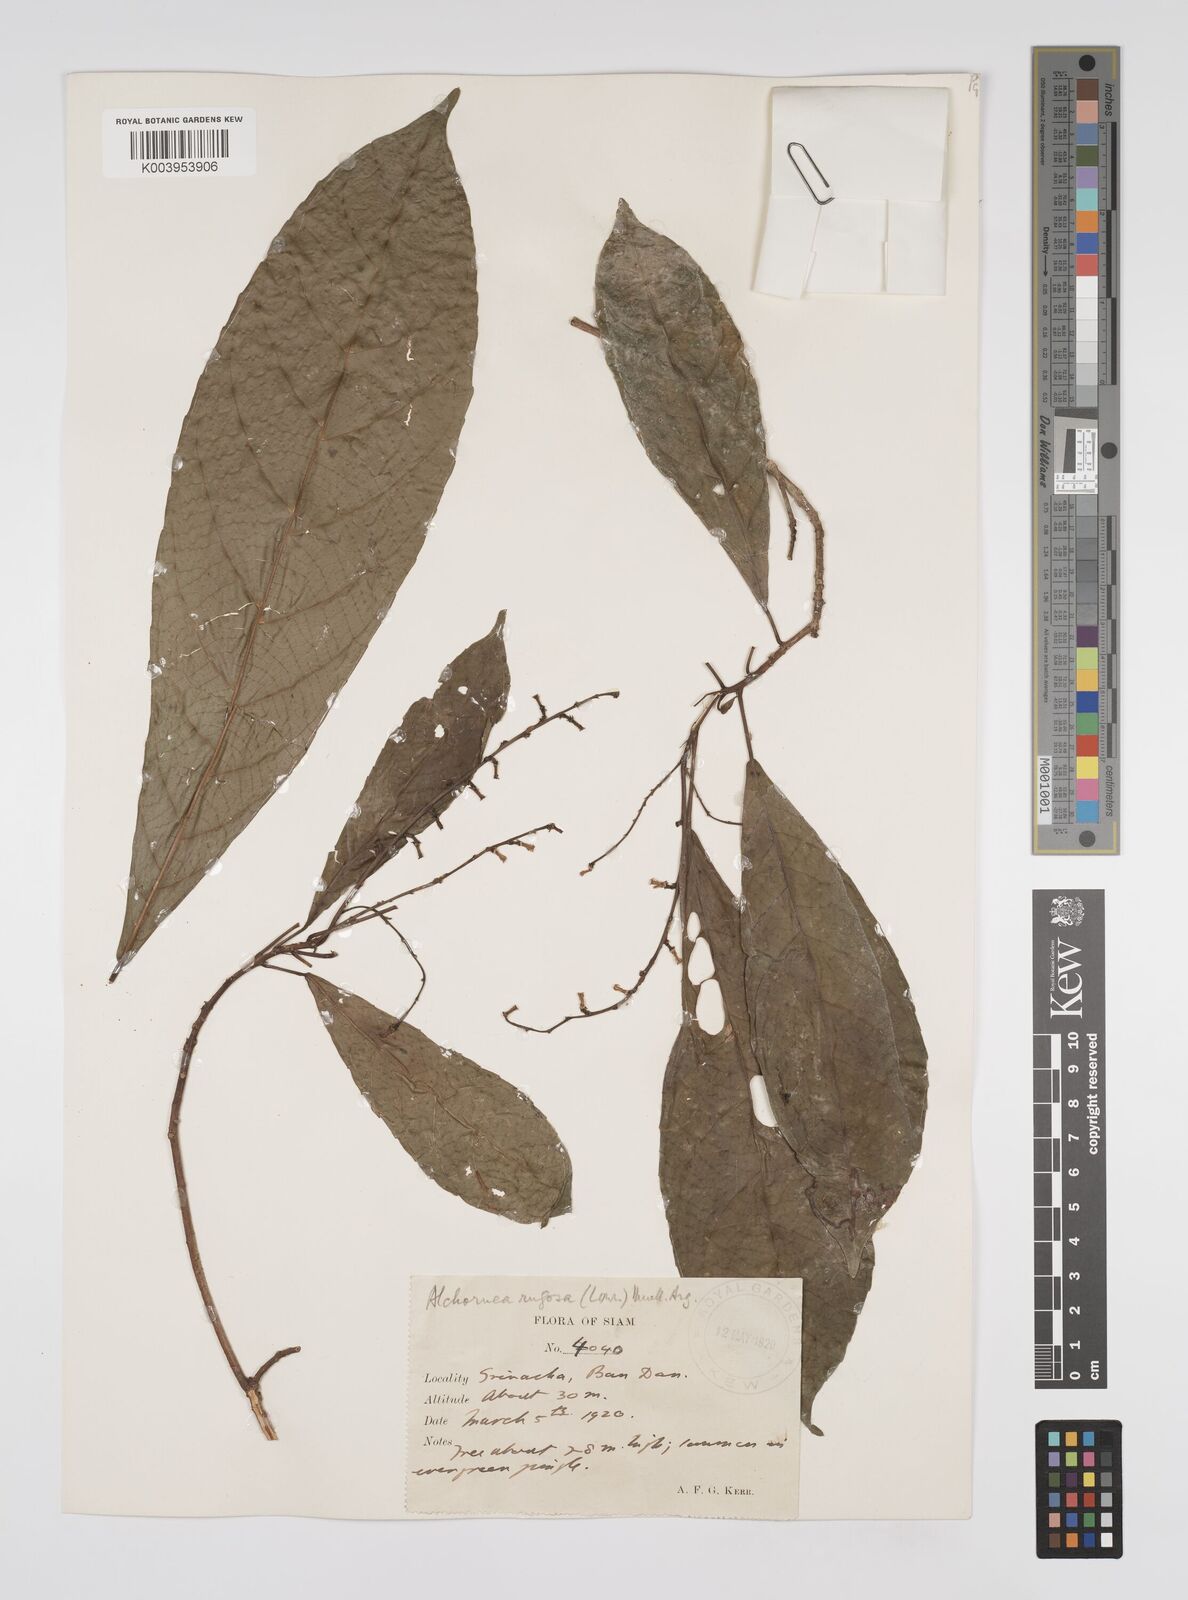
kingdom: Plantae
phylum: Tracheophyta
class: Magnoliopsida
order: Malpighiales
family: Euphorbiaceae
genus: Alchornea
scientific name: Alchornea rugosa
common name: Alchorntree
